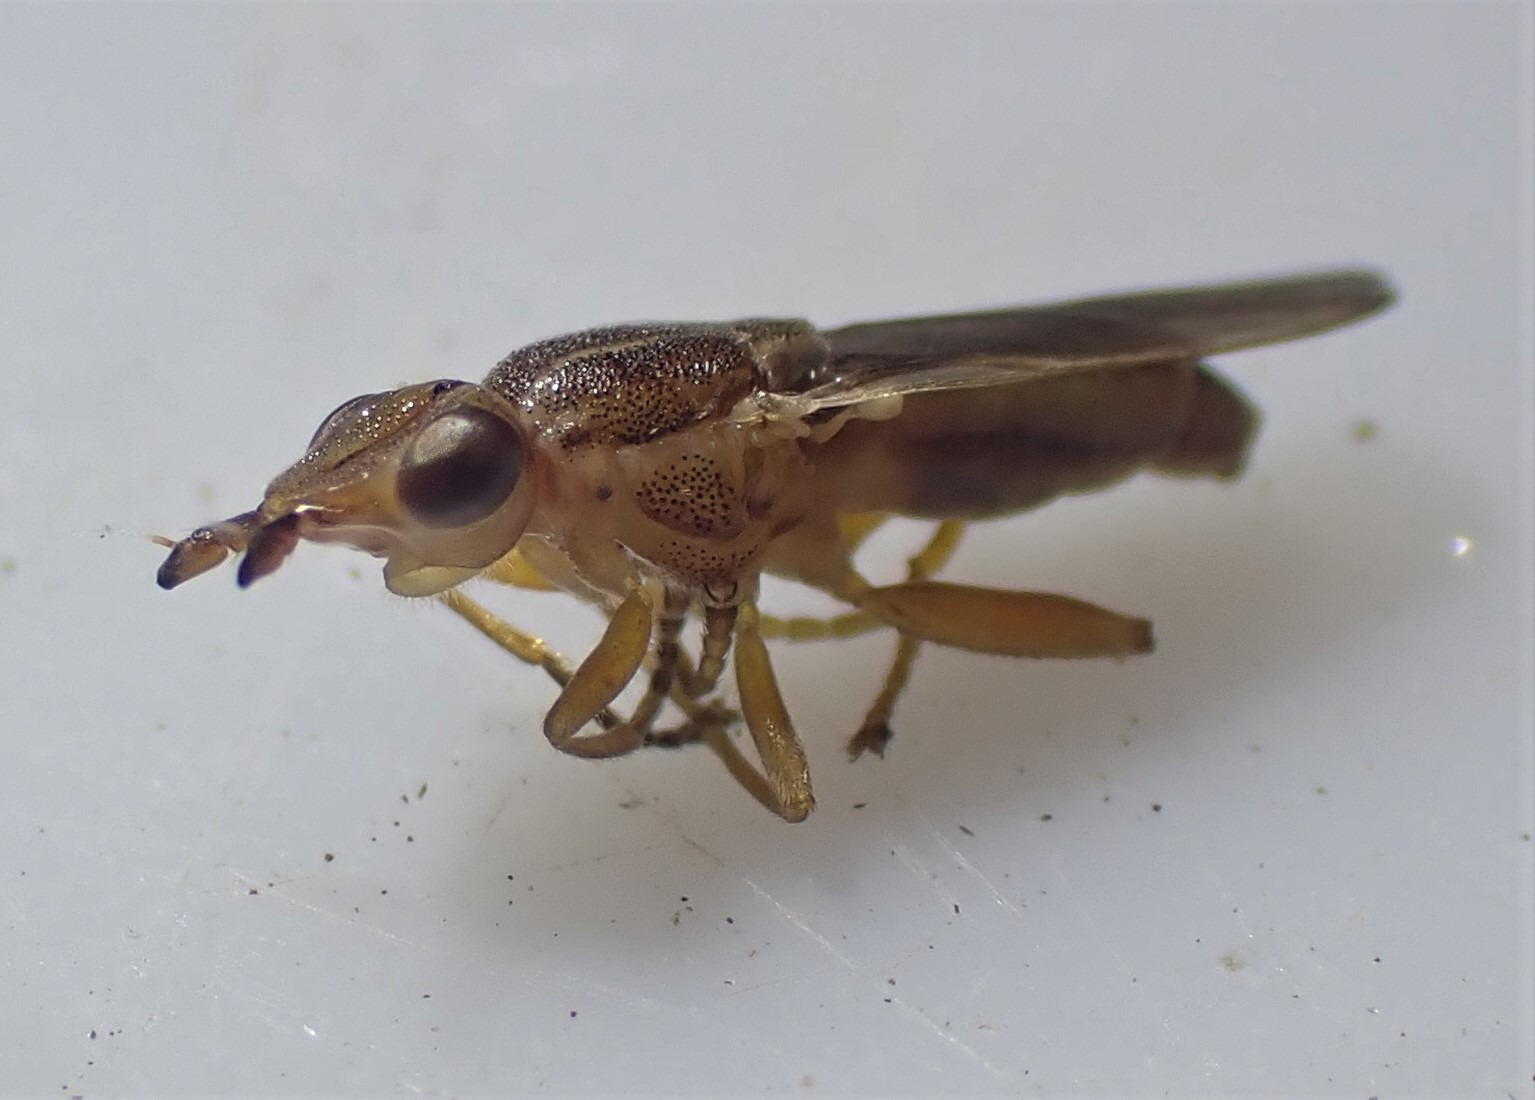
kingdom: Animalia
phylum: Arthropoda
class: Insecta
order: Diptera
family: Chloropidae
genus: Platycephala
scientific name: Platycephala planifrons
